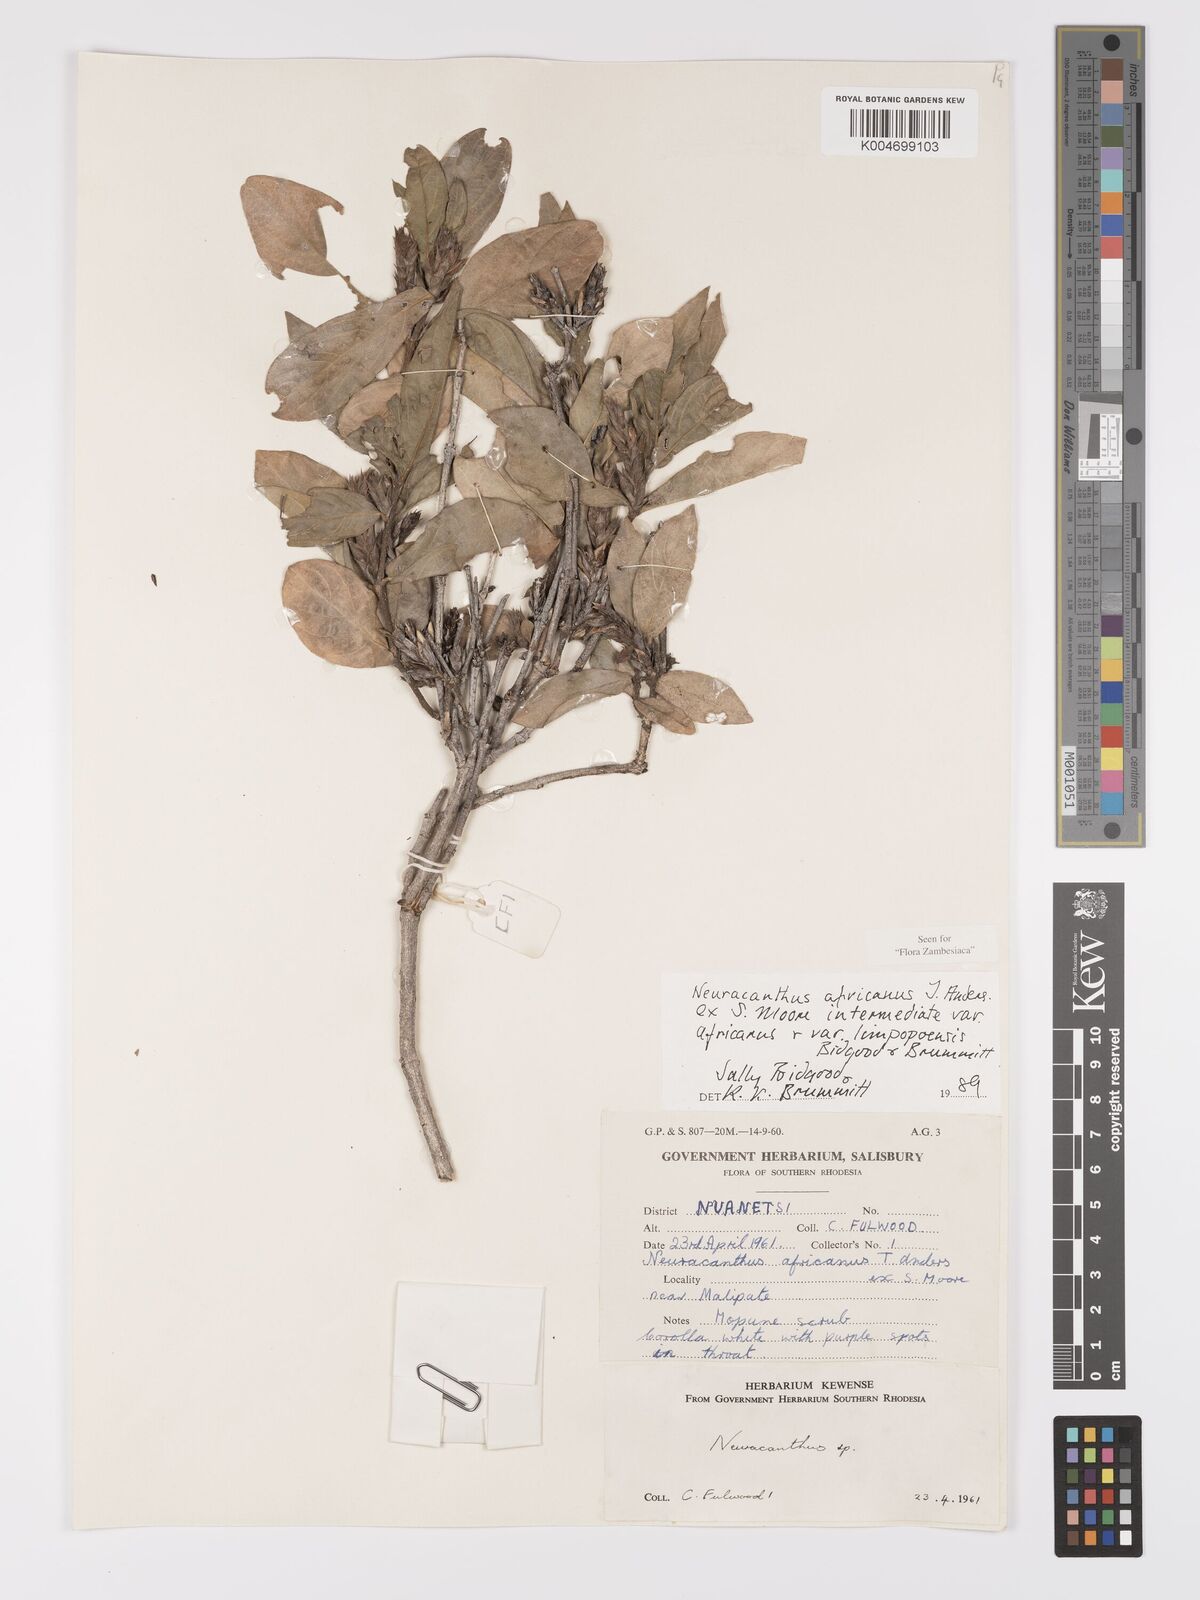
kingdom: Plantae
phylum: Tracheophyta
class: Magnoliopsida
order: Lamiales
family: Acanthaceae
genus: Neuracanthus
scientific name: Neuracanthus africanus
